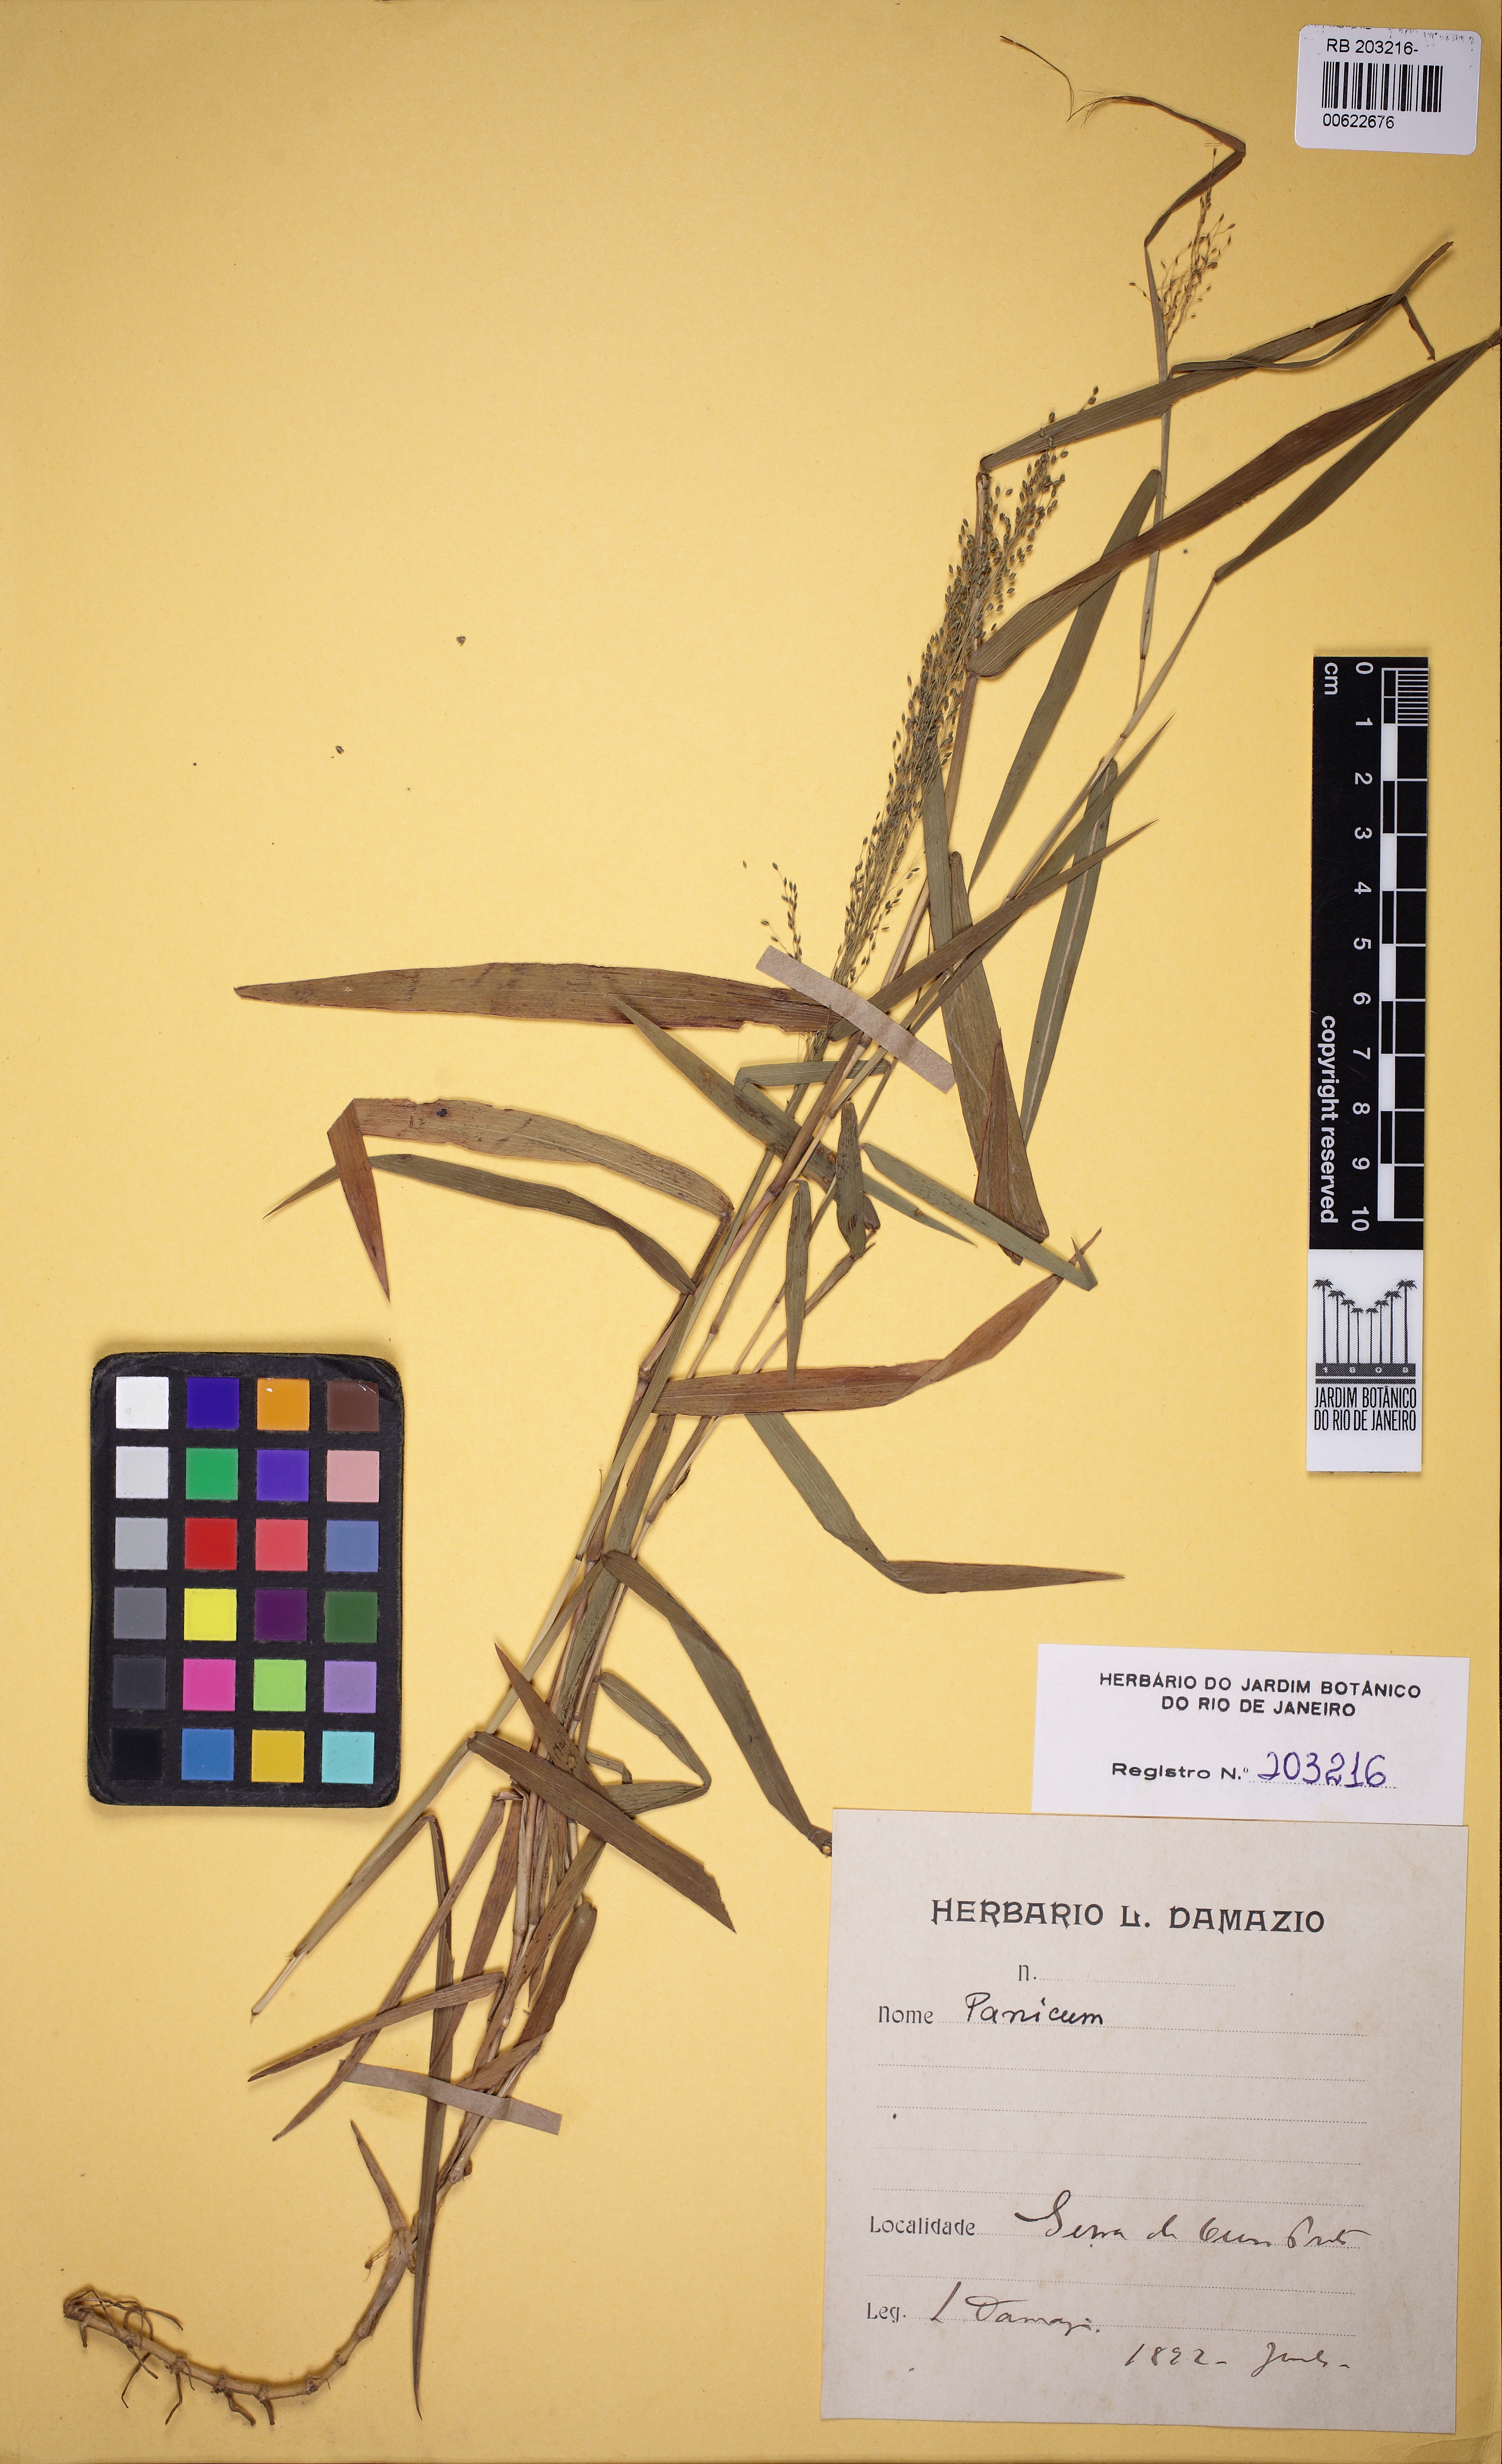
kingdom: Plantae
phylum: Tracheophyta
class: Liliopsida
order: Poales
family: Poaceae
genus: Trichanthecium
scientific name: Trichanthecium wettsteinii
